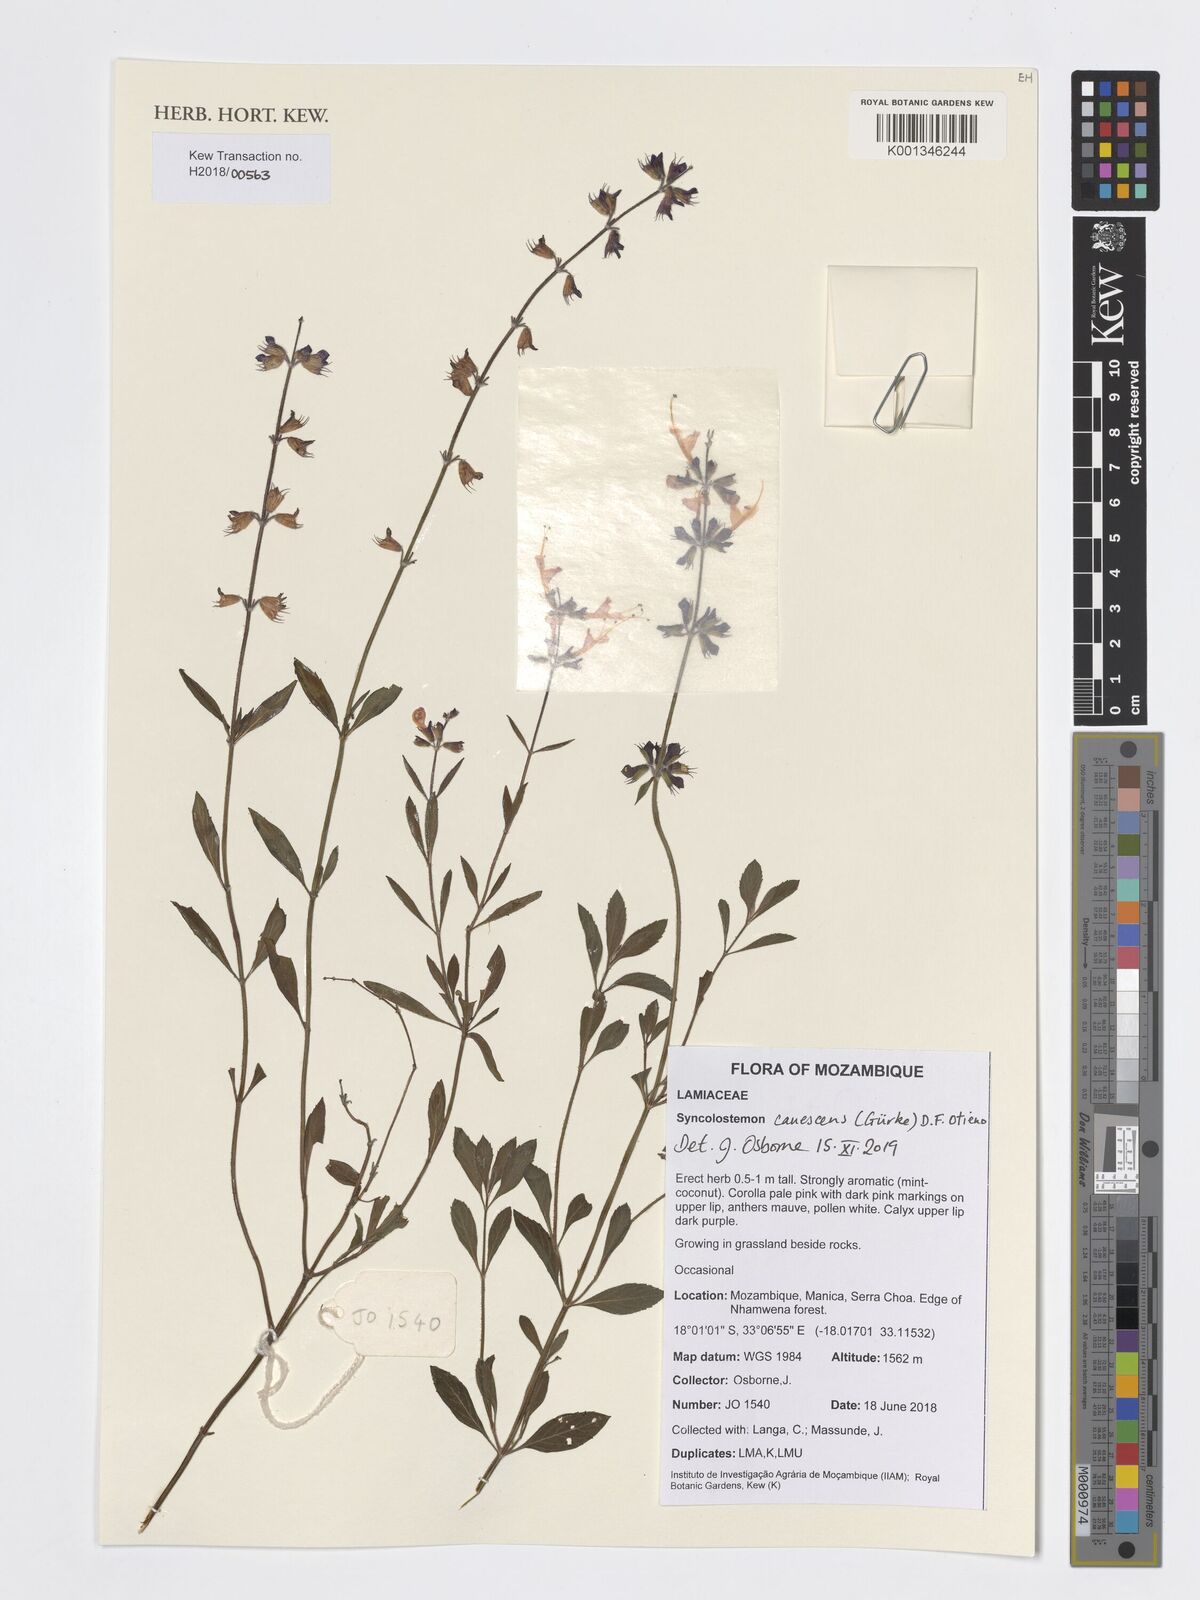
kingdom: Plantae
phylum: Tracheophyta
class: Magnoliopsida
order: Lamiales
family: Lamiaceae
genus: Syncolostemon
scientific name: Syncolostemon canescens
